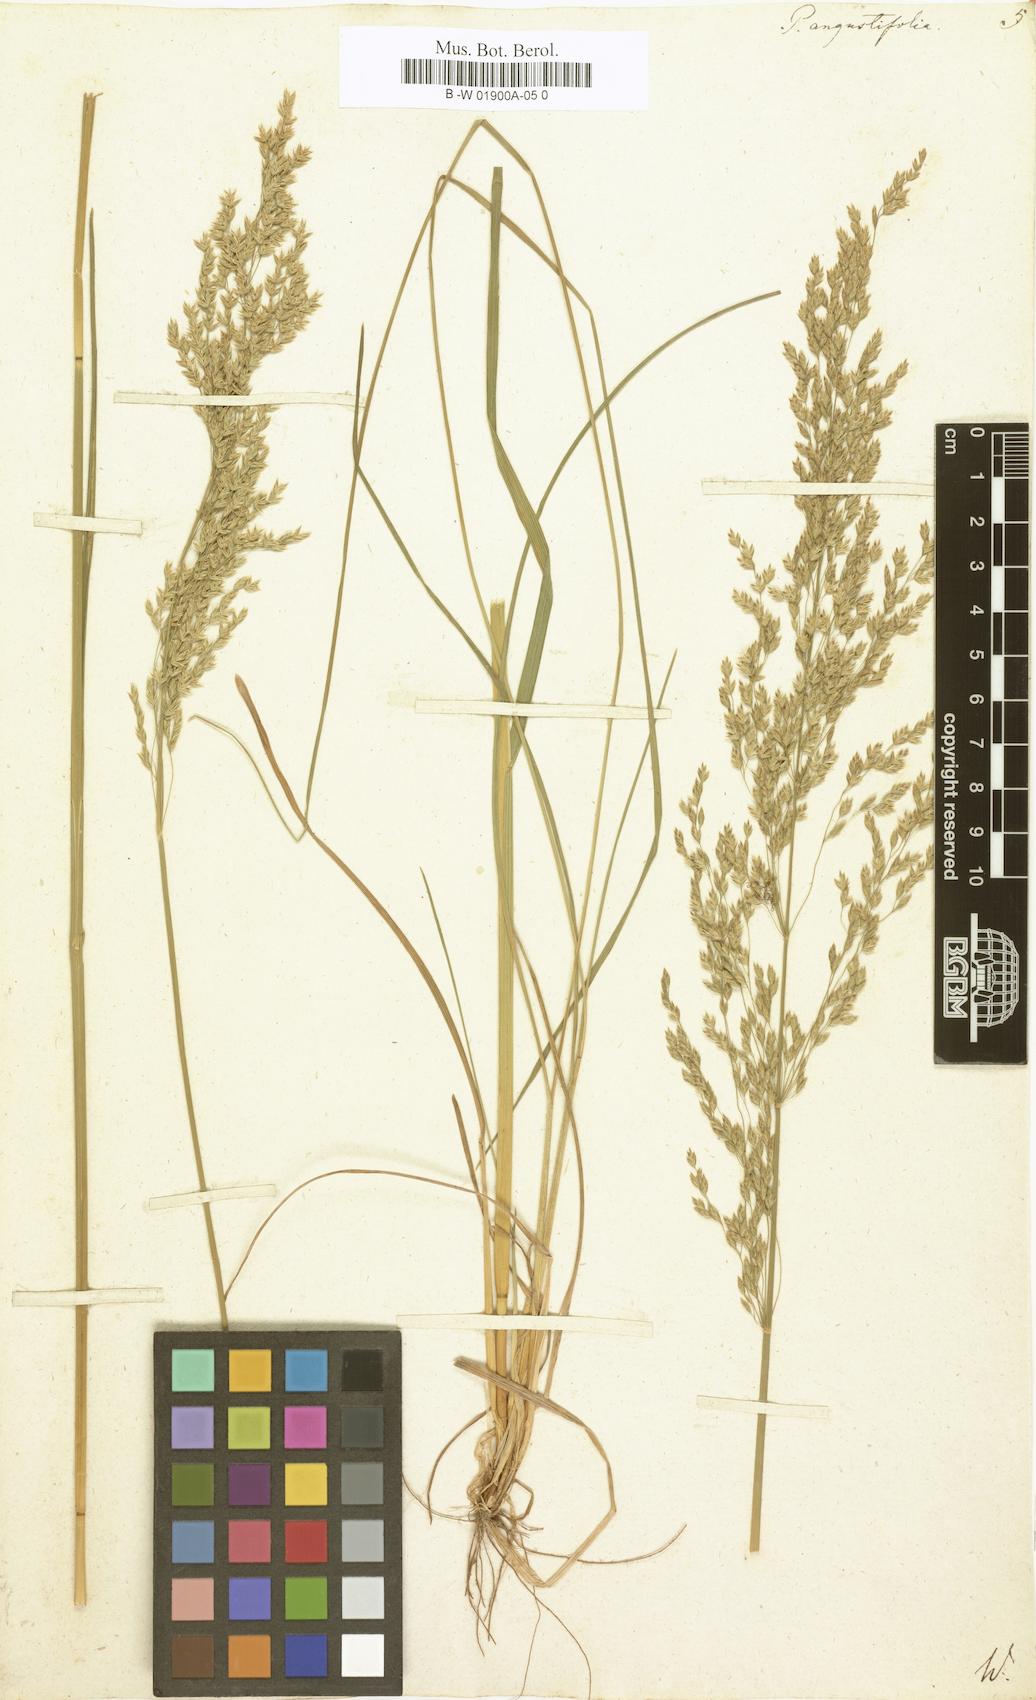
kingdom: Plantae
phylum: Tracheophyta
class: Liliopsida
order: Poales
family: Poaceae
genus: Poa
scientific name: Poa pratensis
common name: Kentucky bluegrass
